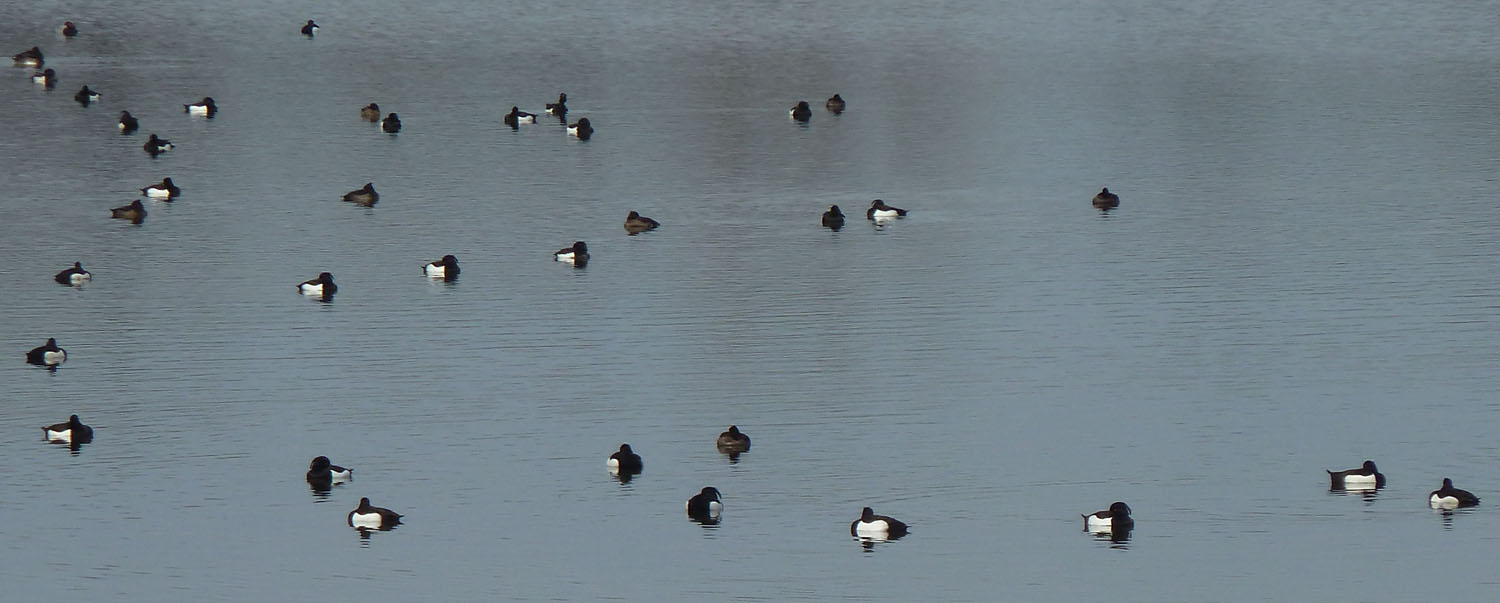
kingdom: Animalia
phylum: Chordata
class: Aves
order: Anseriformes
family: Anatidae
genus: Aythya
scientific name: Aythya fuligula
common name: Tufted duck
